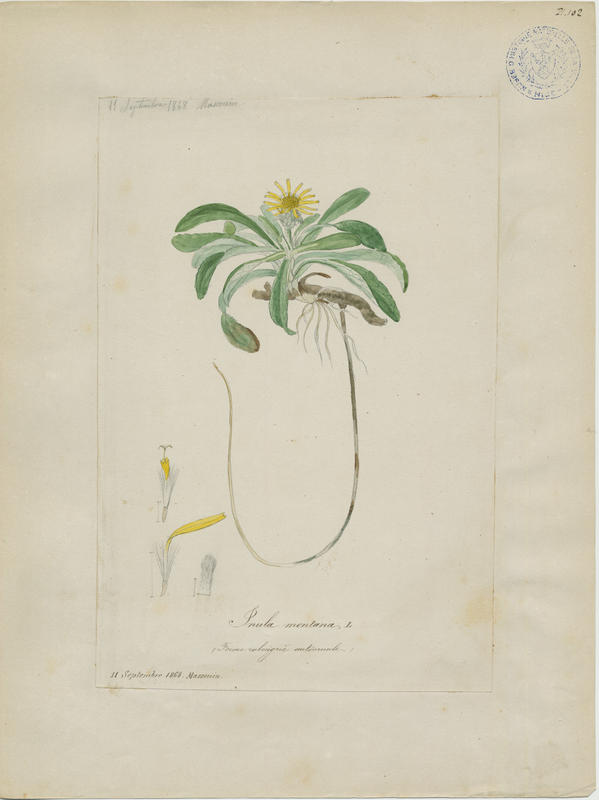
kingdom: Plantae
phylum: Tracheophyta
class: Magnoliopsida
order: Asterales
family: Asteraceae
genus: Pentanema
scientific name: Pentanema montanum
